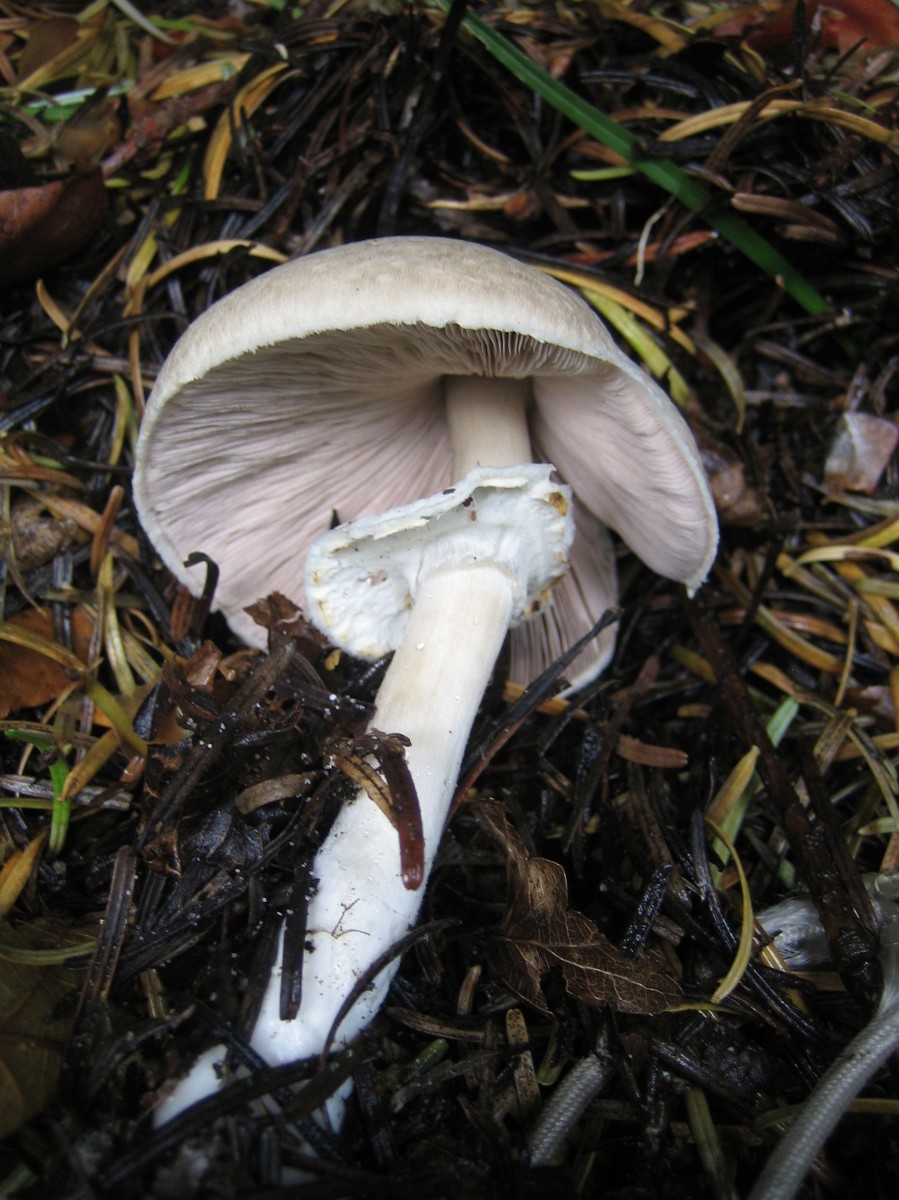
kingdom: Fungi
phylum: Basidiomycota
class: Agaricomycetes
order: Agaricales
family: Agaricaceae
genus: Agaricus
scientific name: Agaricus
